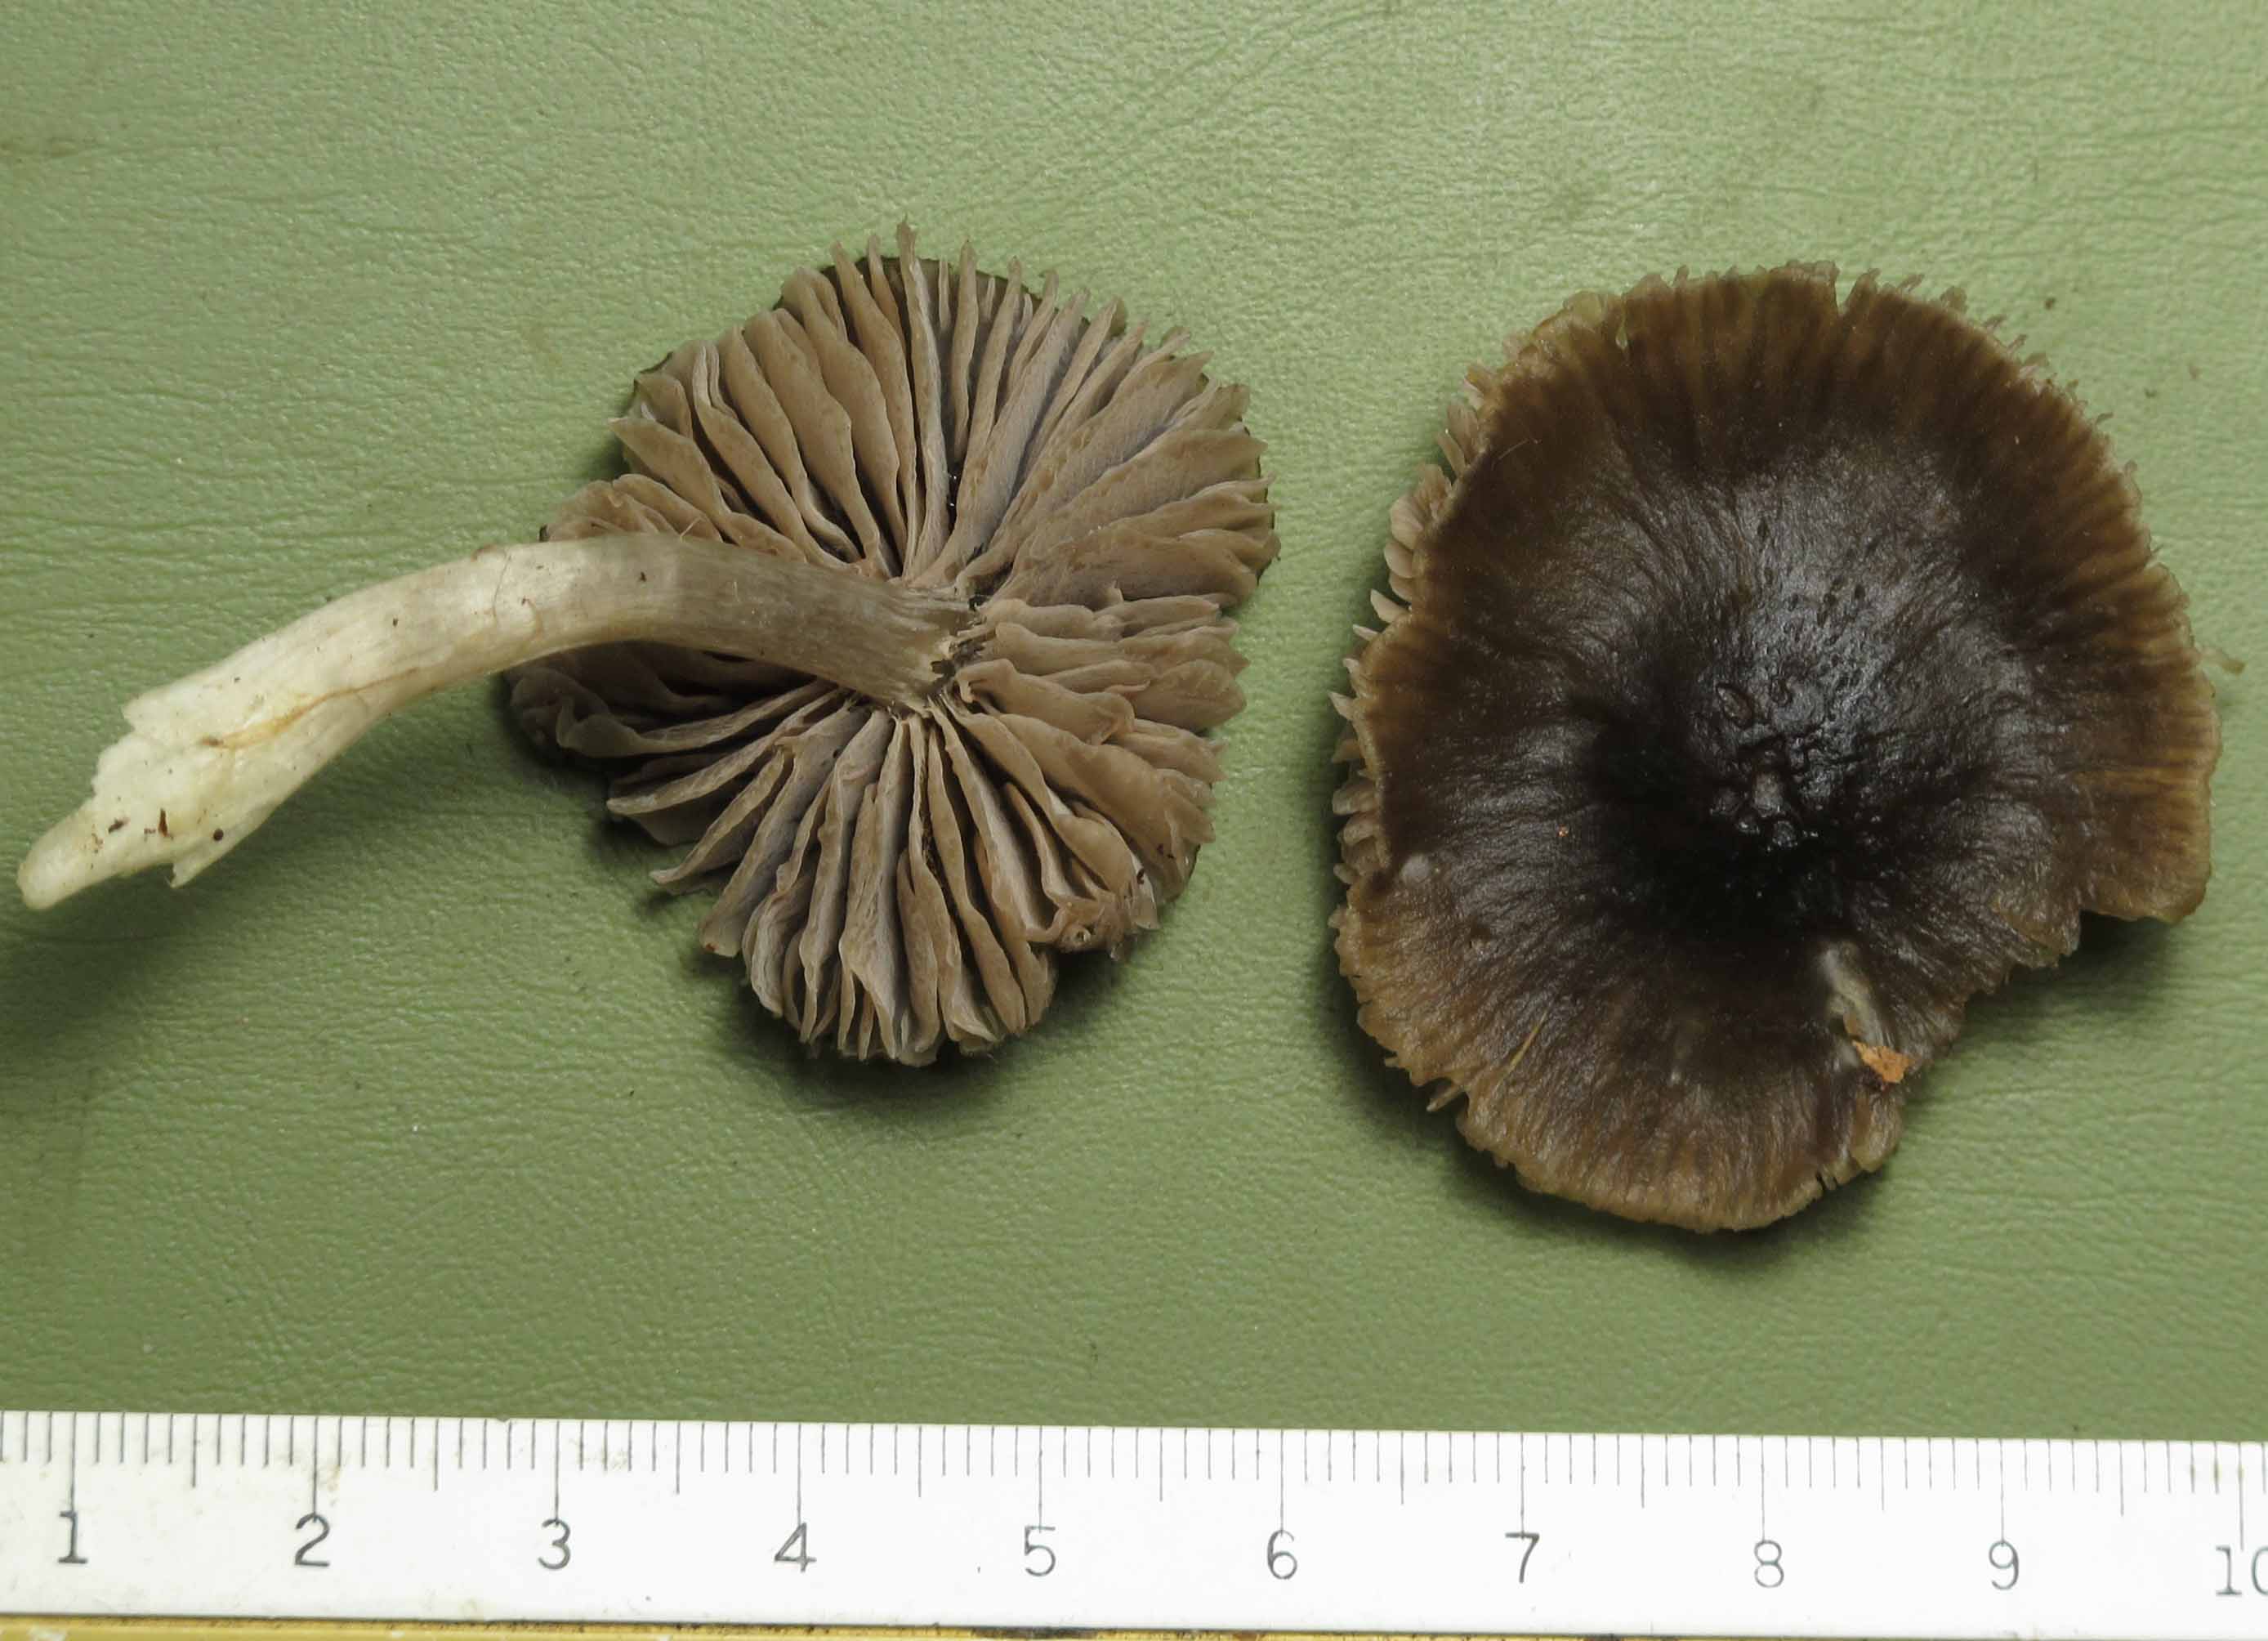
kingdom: Fungi
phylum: Basidiomycota
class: Agaricomycetes
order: Agaricales
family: Entolomataceae
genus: Entocybe
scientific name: Entocybe turbida
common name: plantage-rødblad
